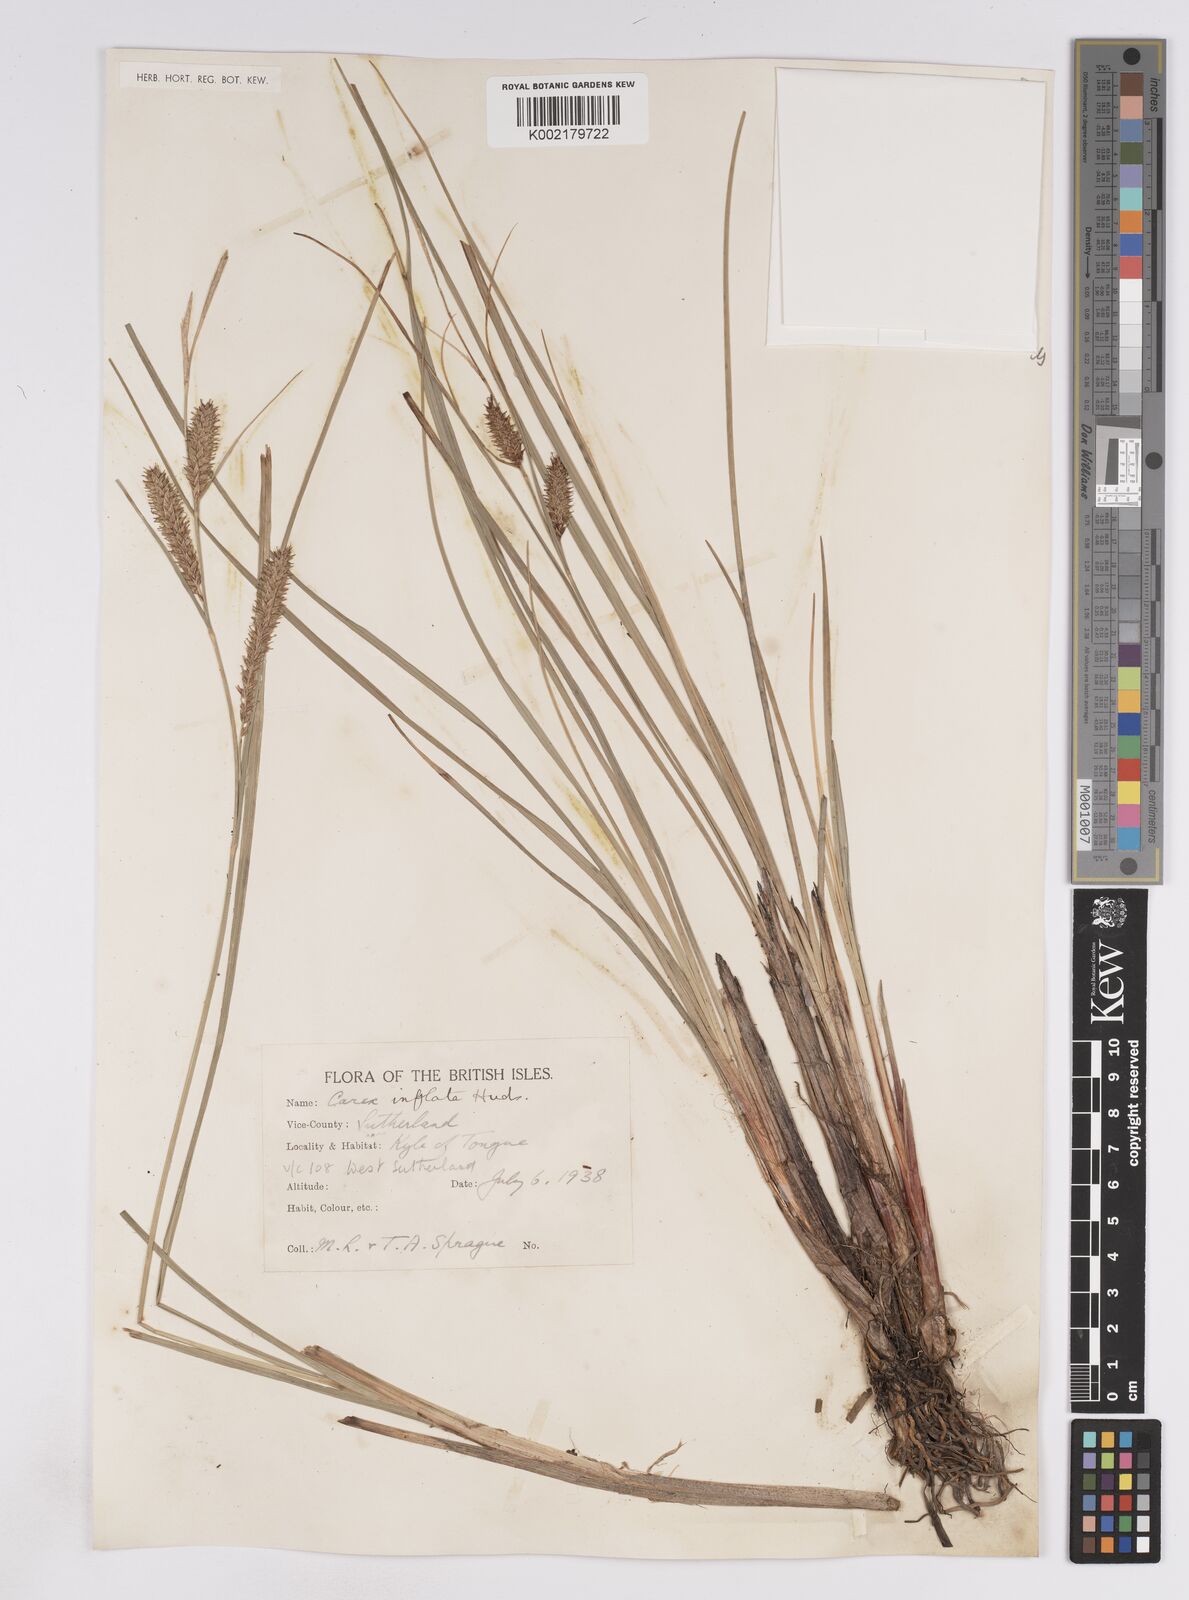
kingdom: Plantae
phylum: Tracheophyta
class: Liliopsida
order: Poales
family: Cyperaceae
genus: Carex
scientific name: Carex rostrata
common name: Bottle sedge
